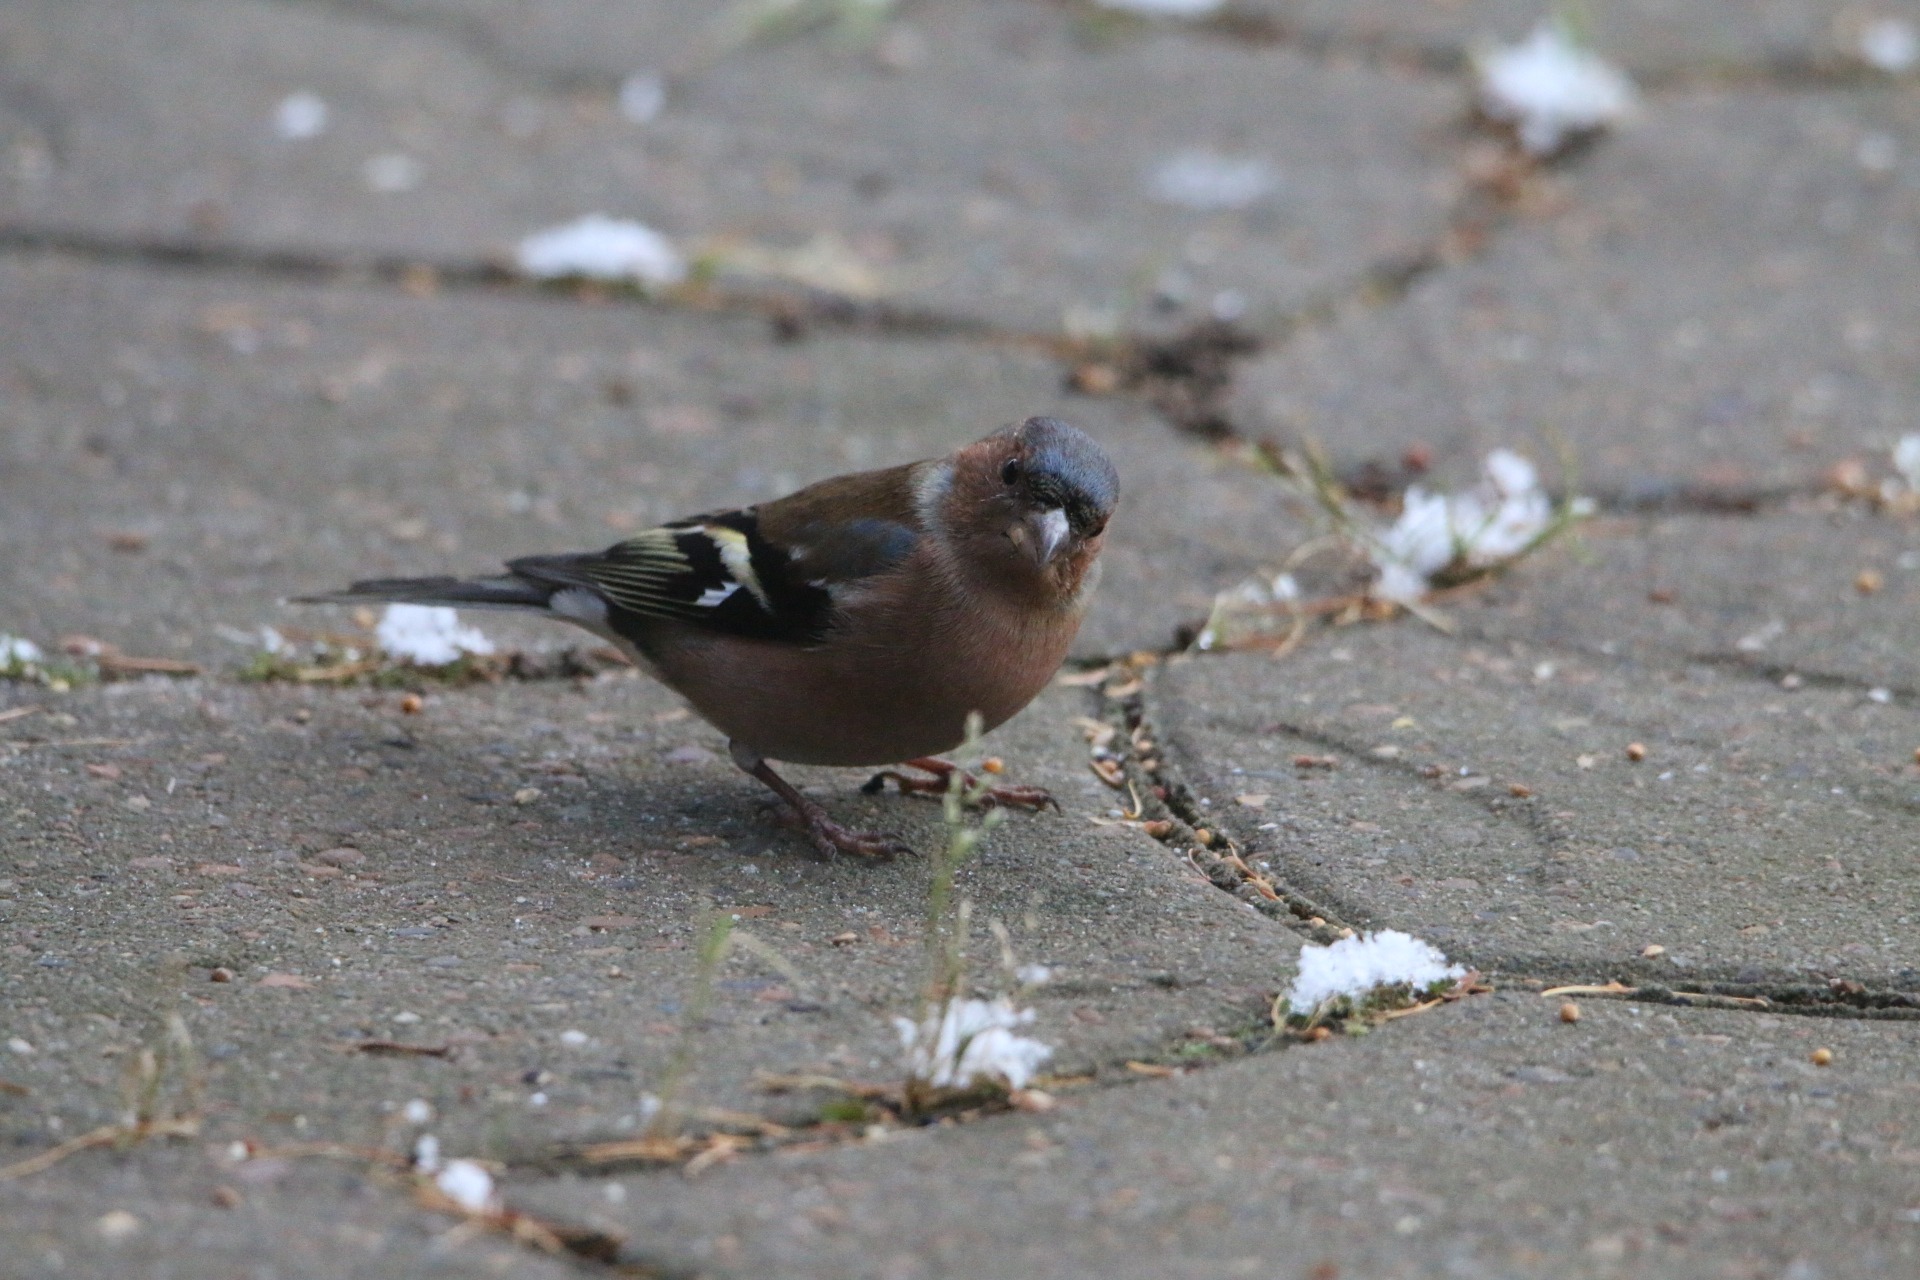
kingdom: Animalia
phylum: Chordata
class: Aves
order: Passeriformes
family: Fringillidae
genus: Fringilla
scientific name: Fringilla coelebs
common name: Bogfinke
